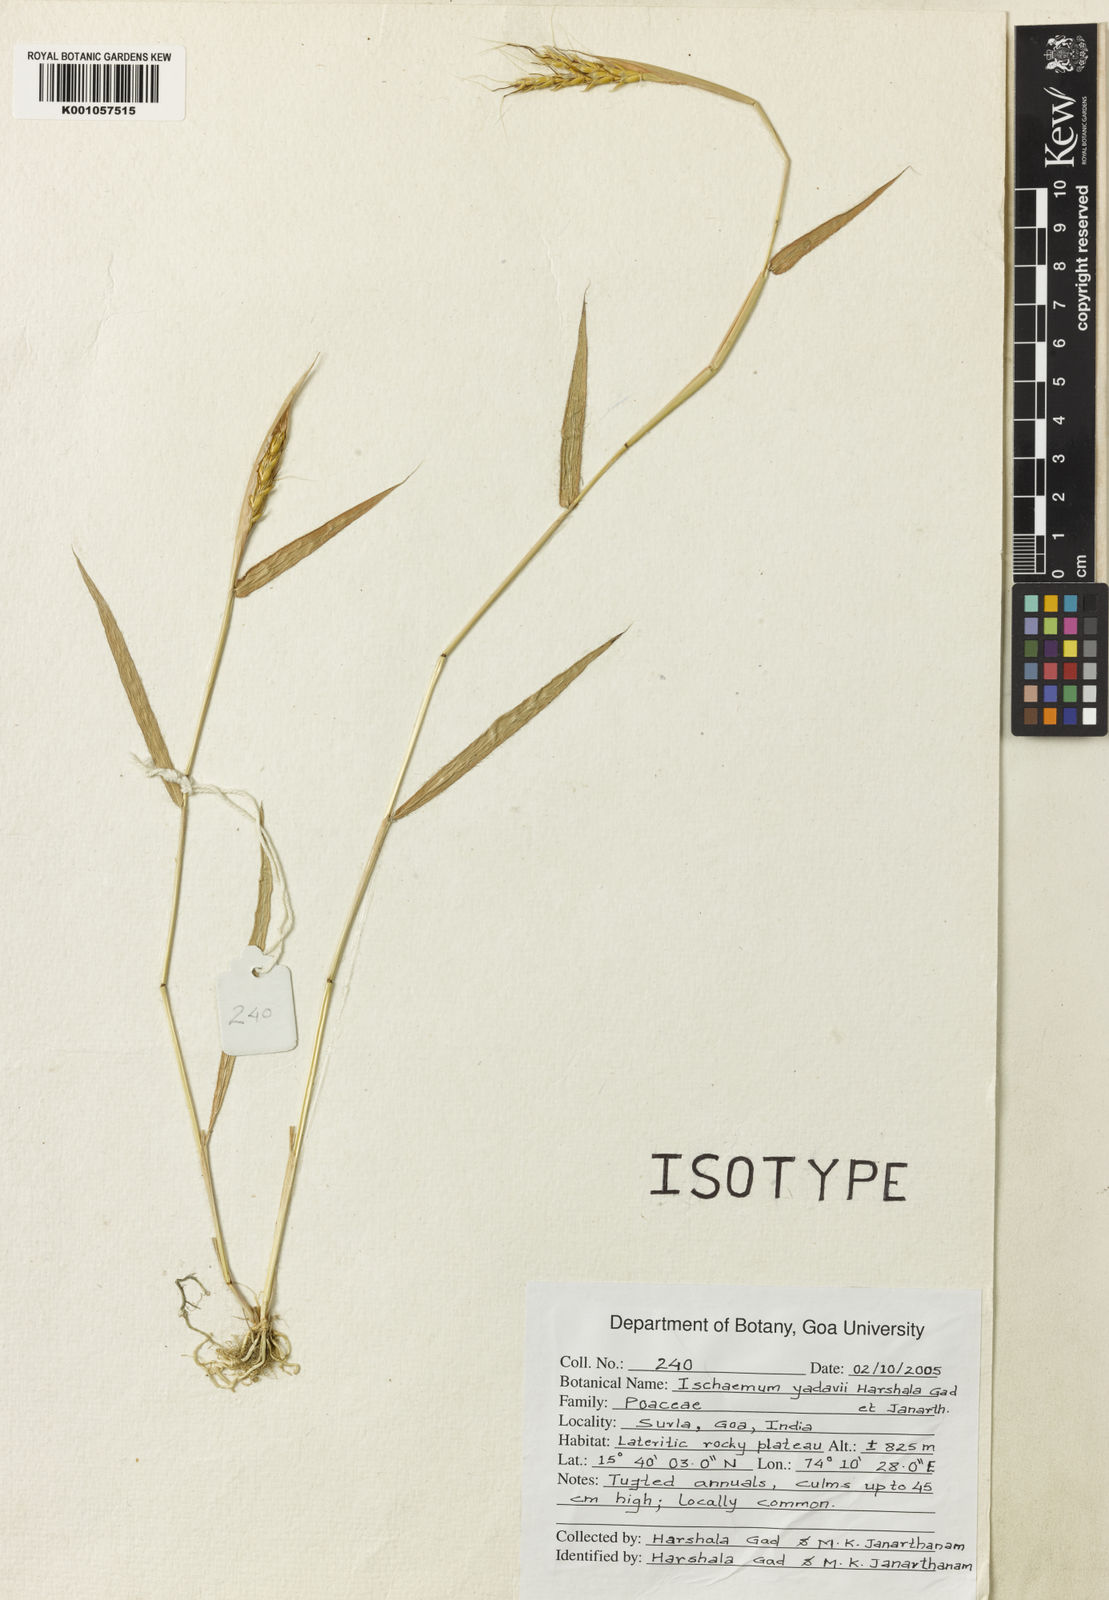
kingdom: Plantae
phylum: Tracheophyta
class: Liliopsida
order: Poales
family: Poaceae
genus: Ischaemum
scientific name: Ischaemum yadavii
